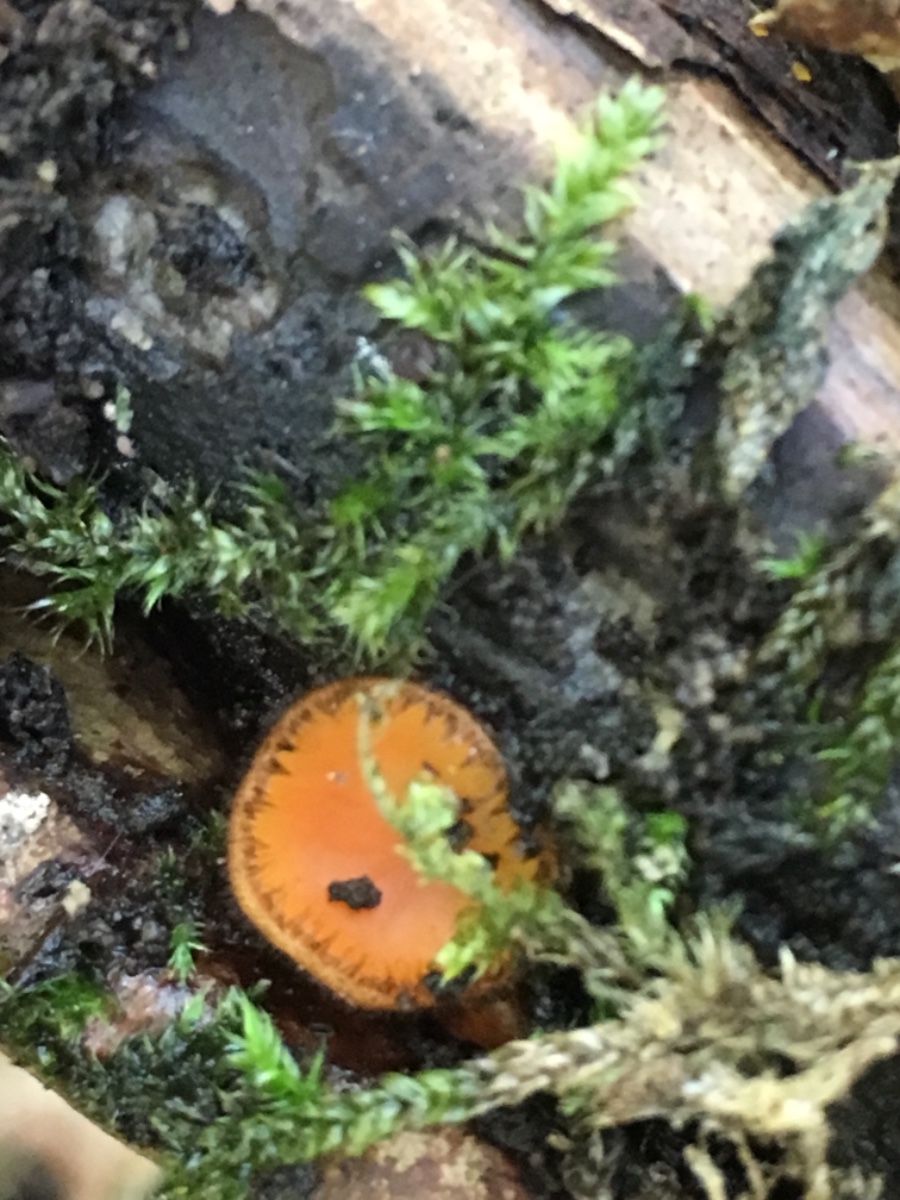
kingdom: Fungi
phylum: Ascomycota
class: Pezizomycetes
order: Pezizales
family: Pyronemataceae
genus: Scutellinia
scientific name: Scutellinia scutellata
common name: frynset skjoldbæger
